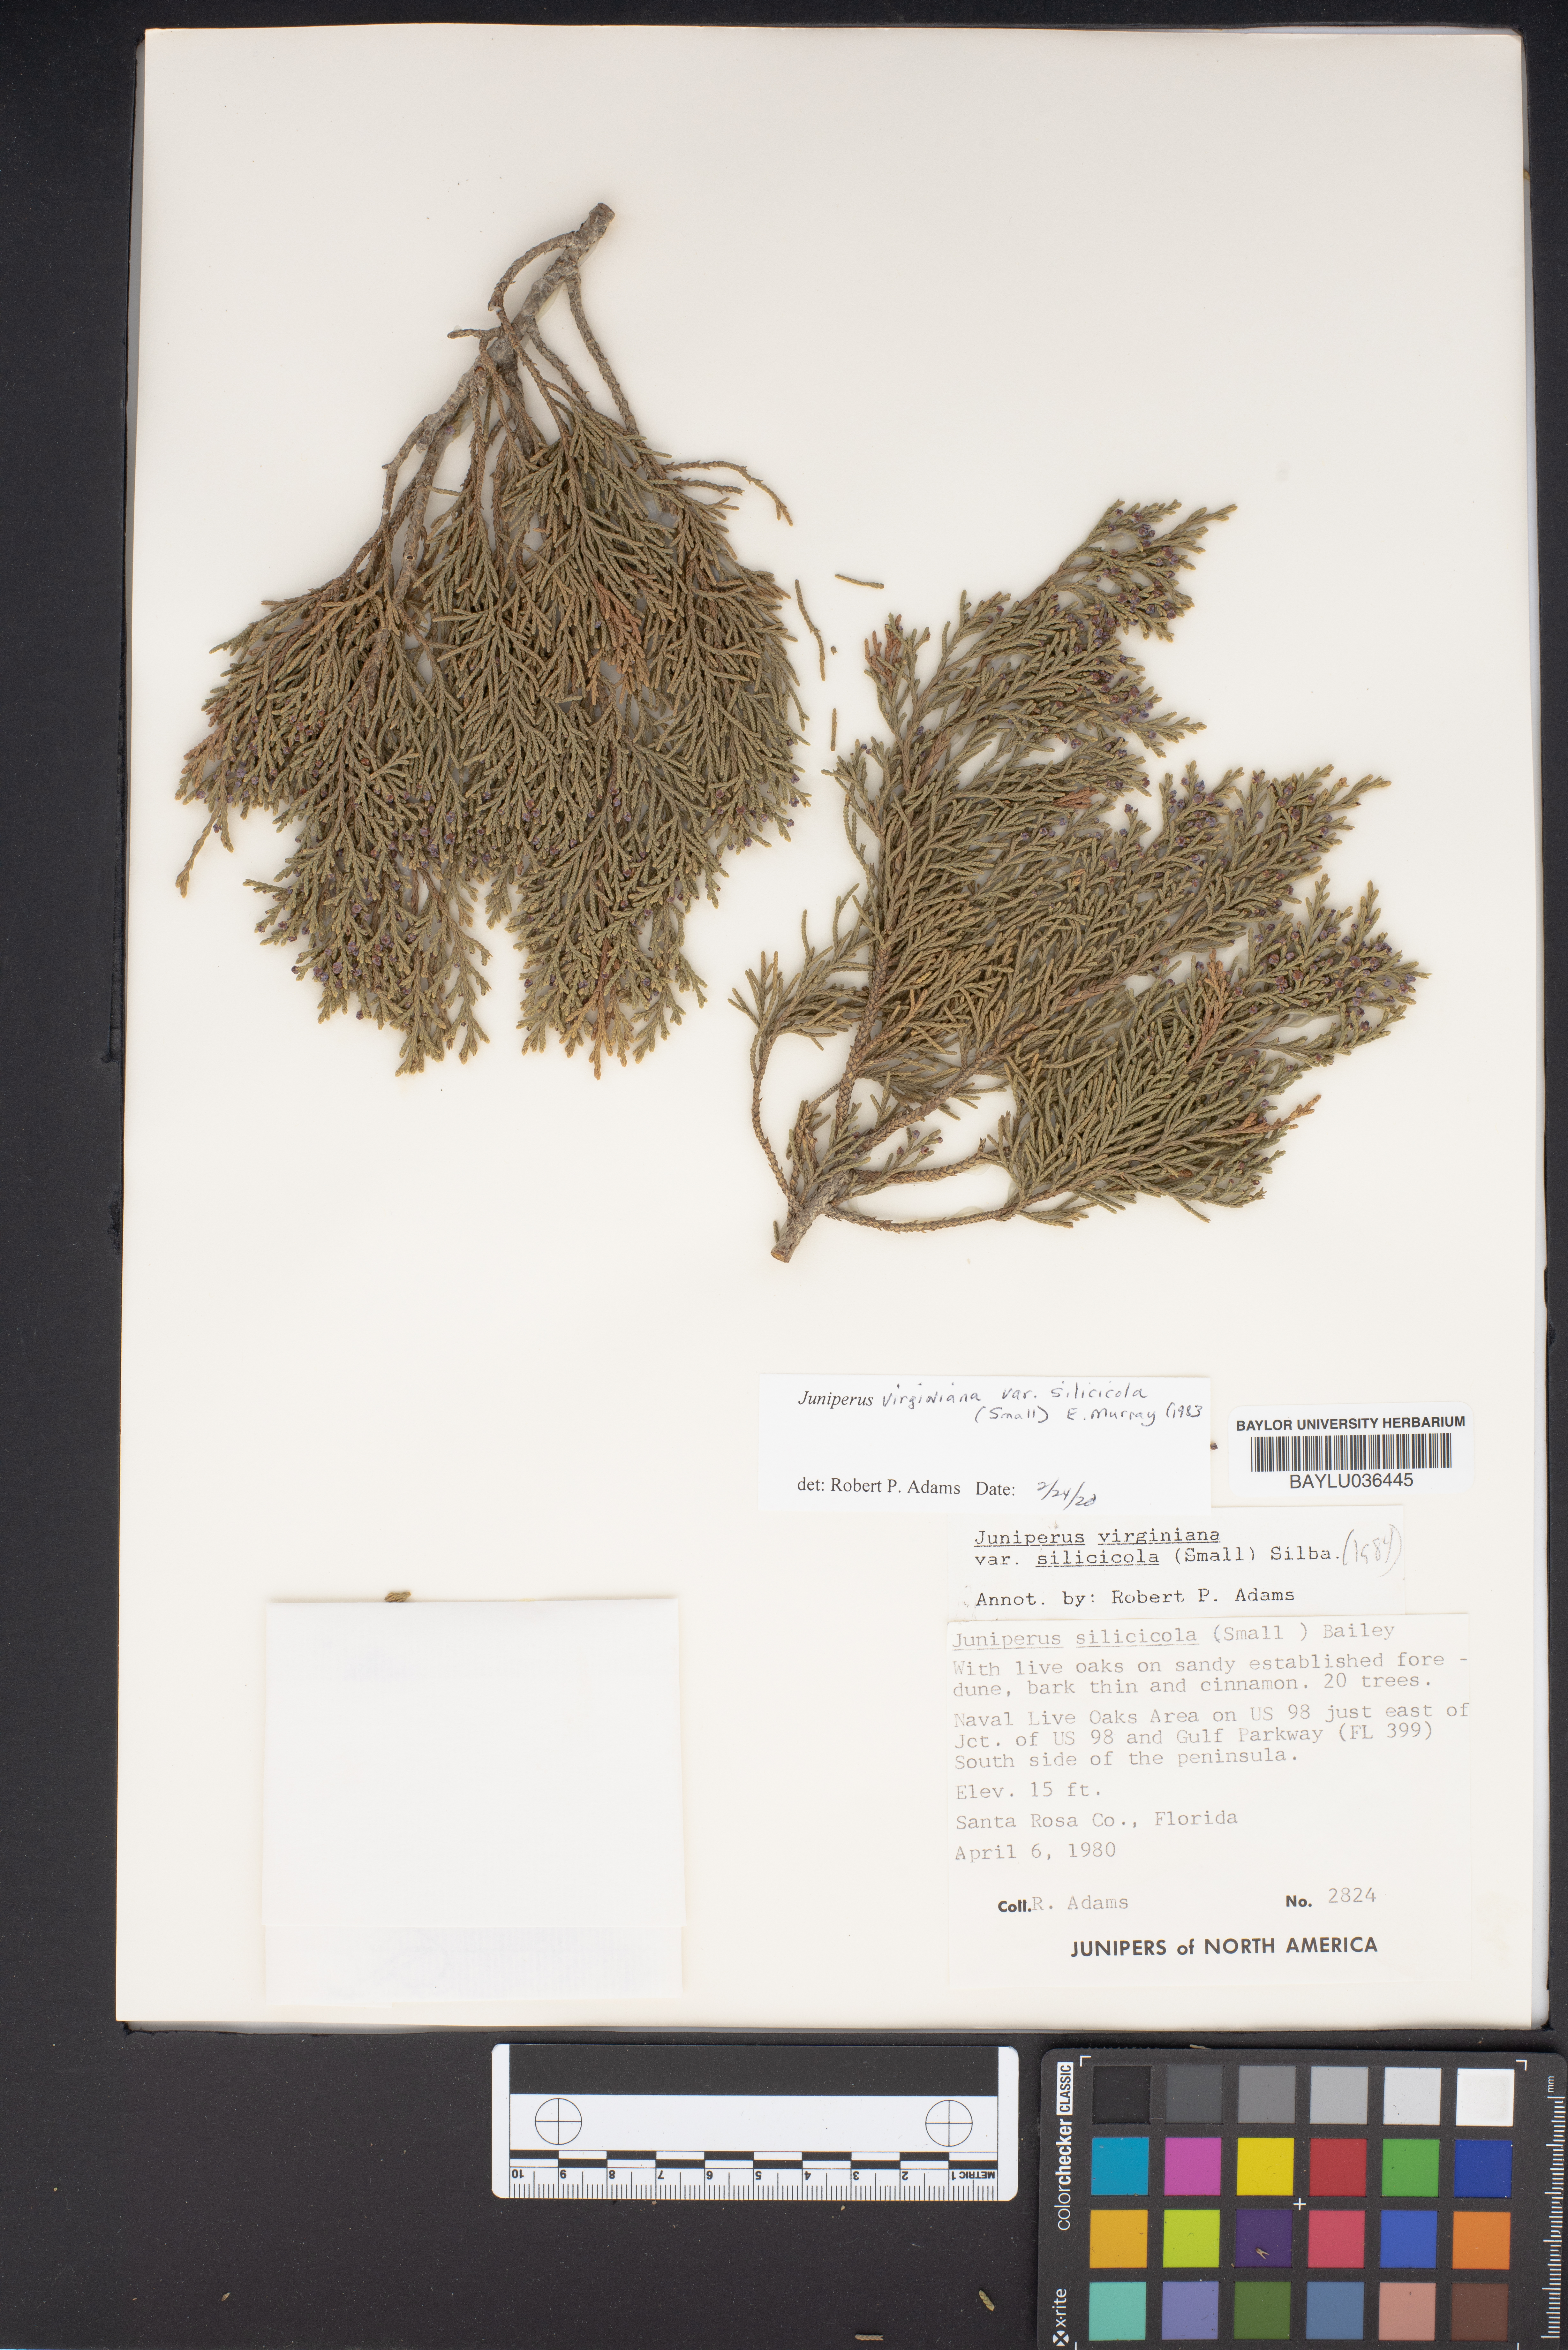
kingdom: Plantae
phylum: Tracheophyta
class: Pinopsida
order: Pinales
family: Cupressaceae
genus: Juniperus
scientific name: Juniperus virginiana
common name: Red juniper
